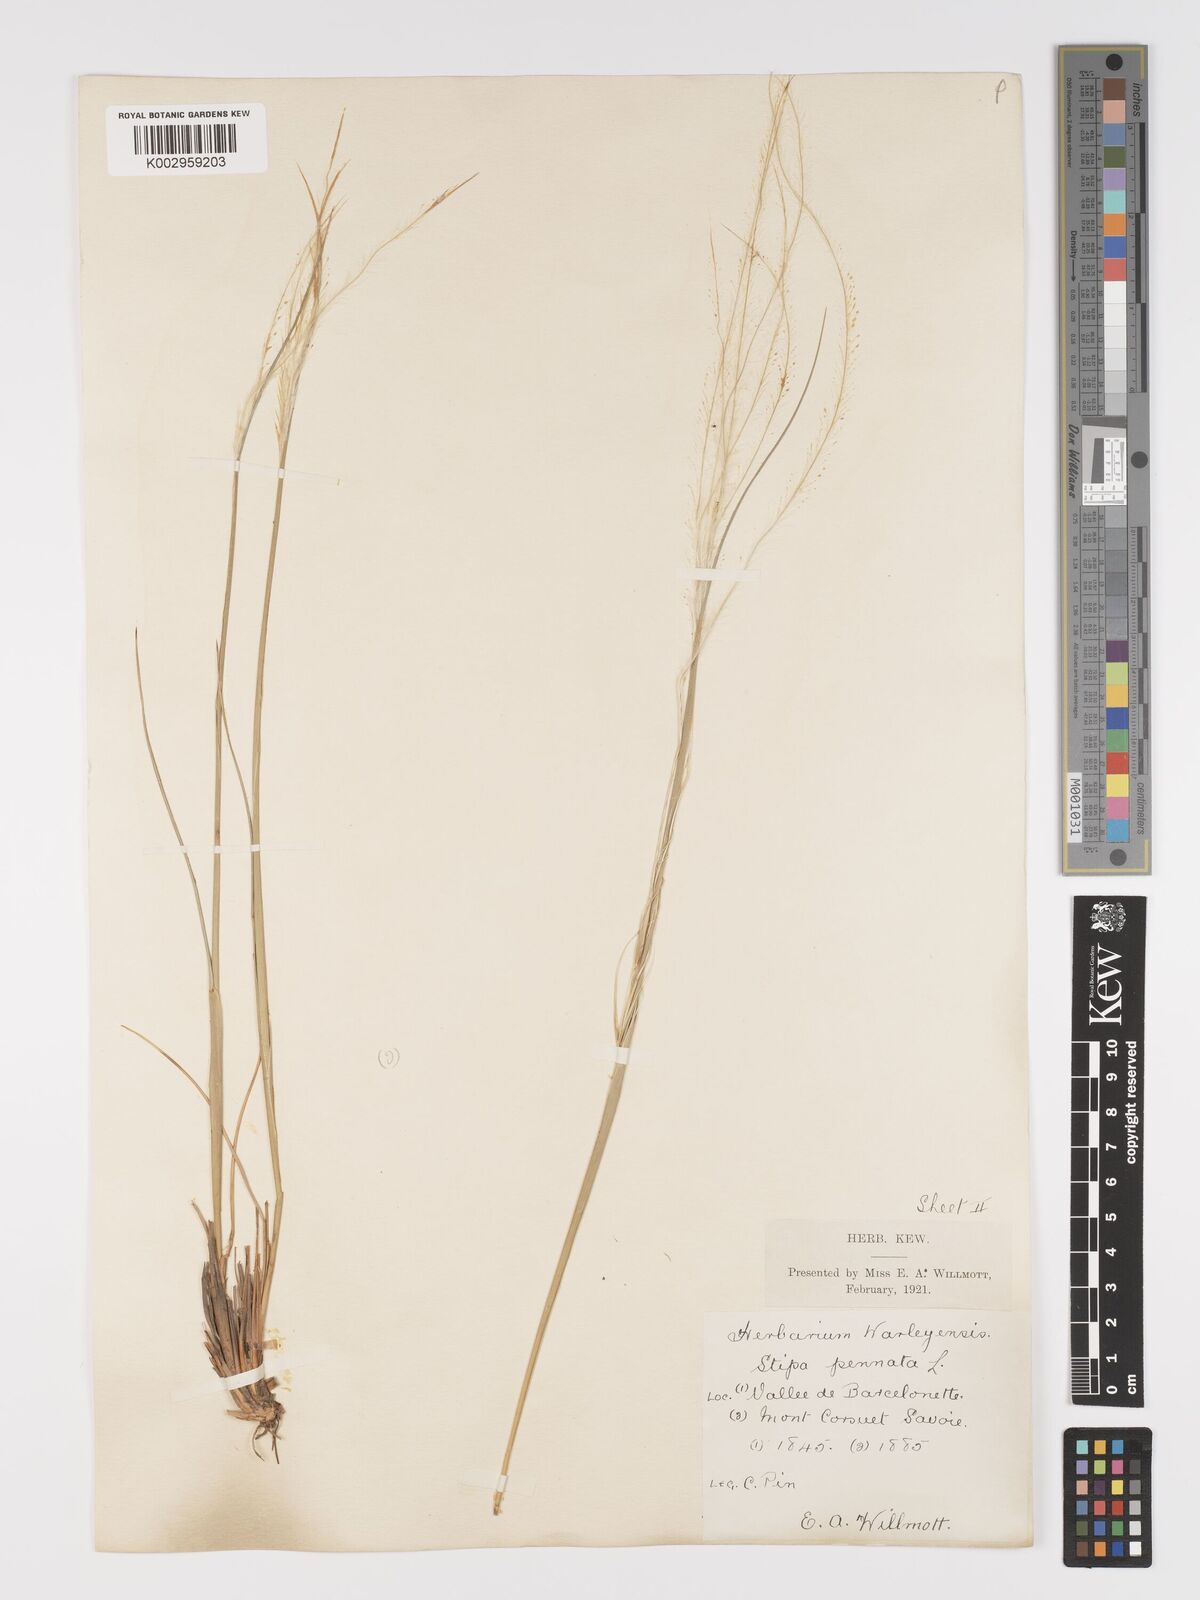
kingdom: Plantae
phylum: Tracheophyta
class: Liliopsida
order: Poales
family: Poaceae
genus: Stipa
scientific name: Stipa pennata
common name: European feather grass
